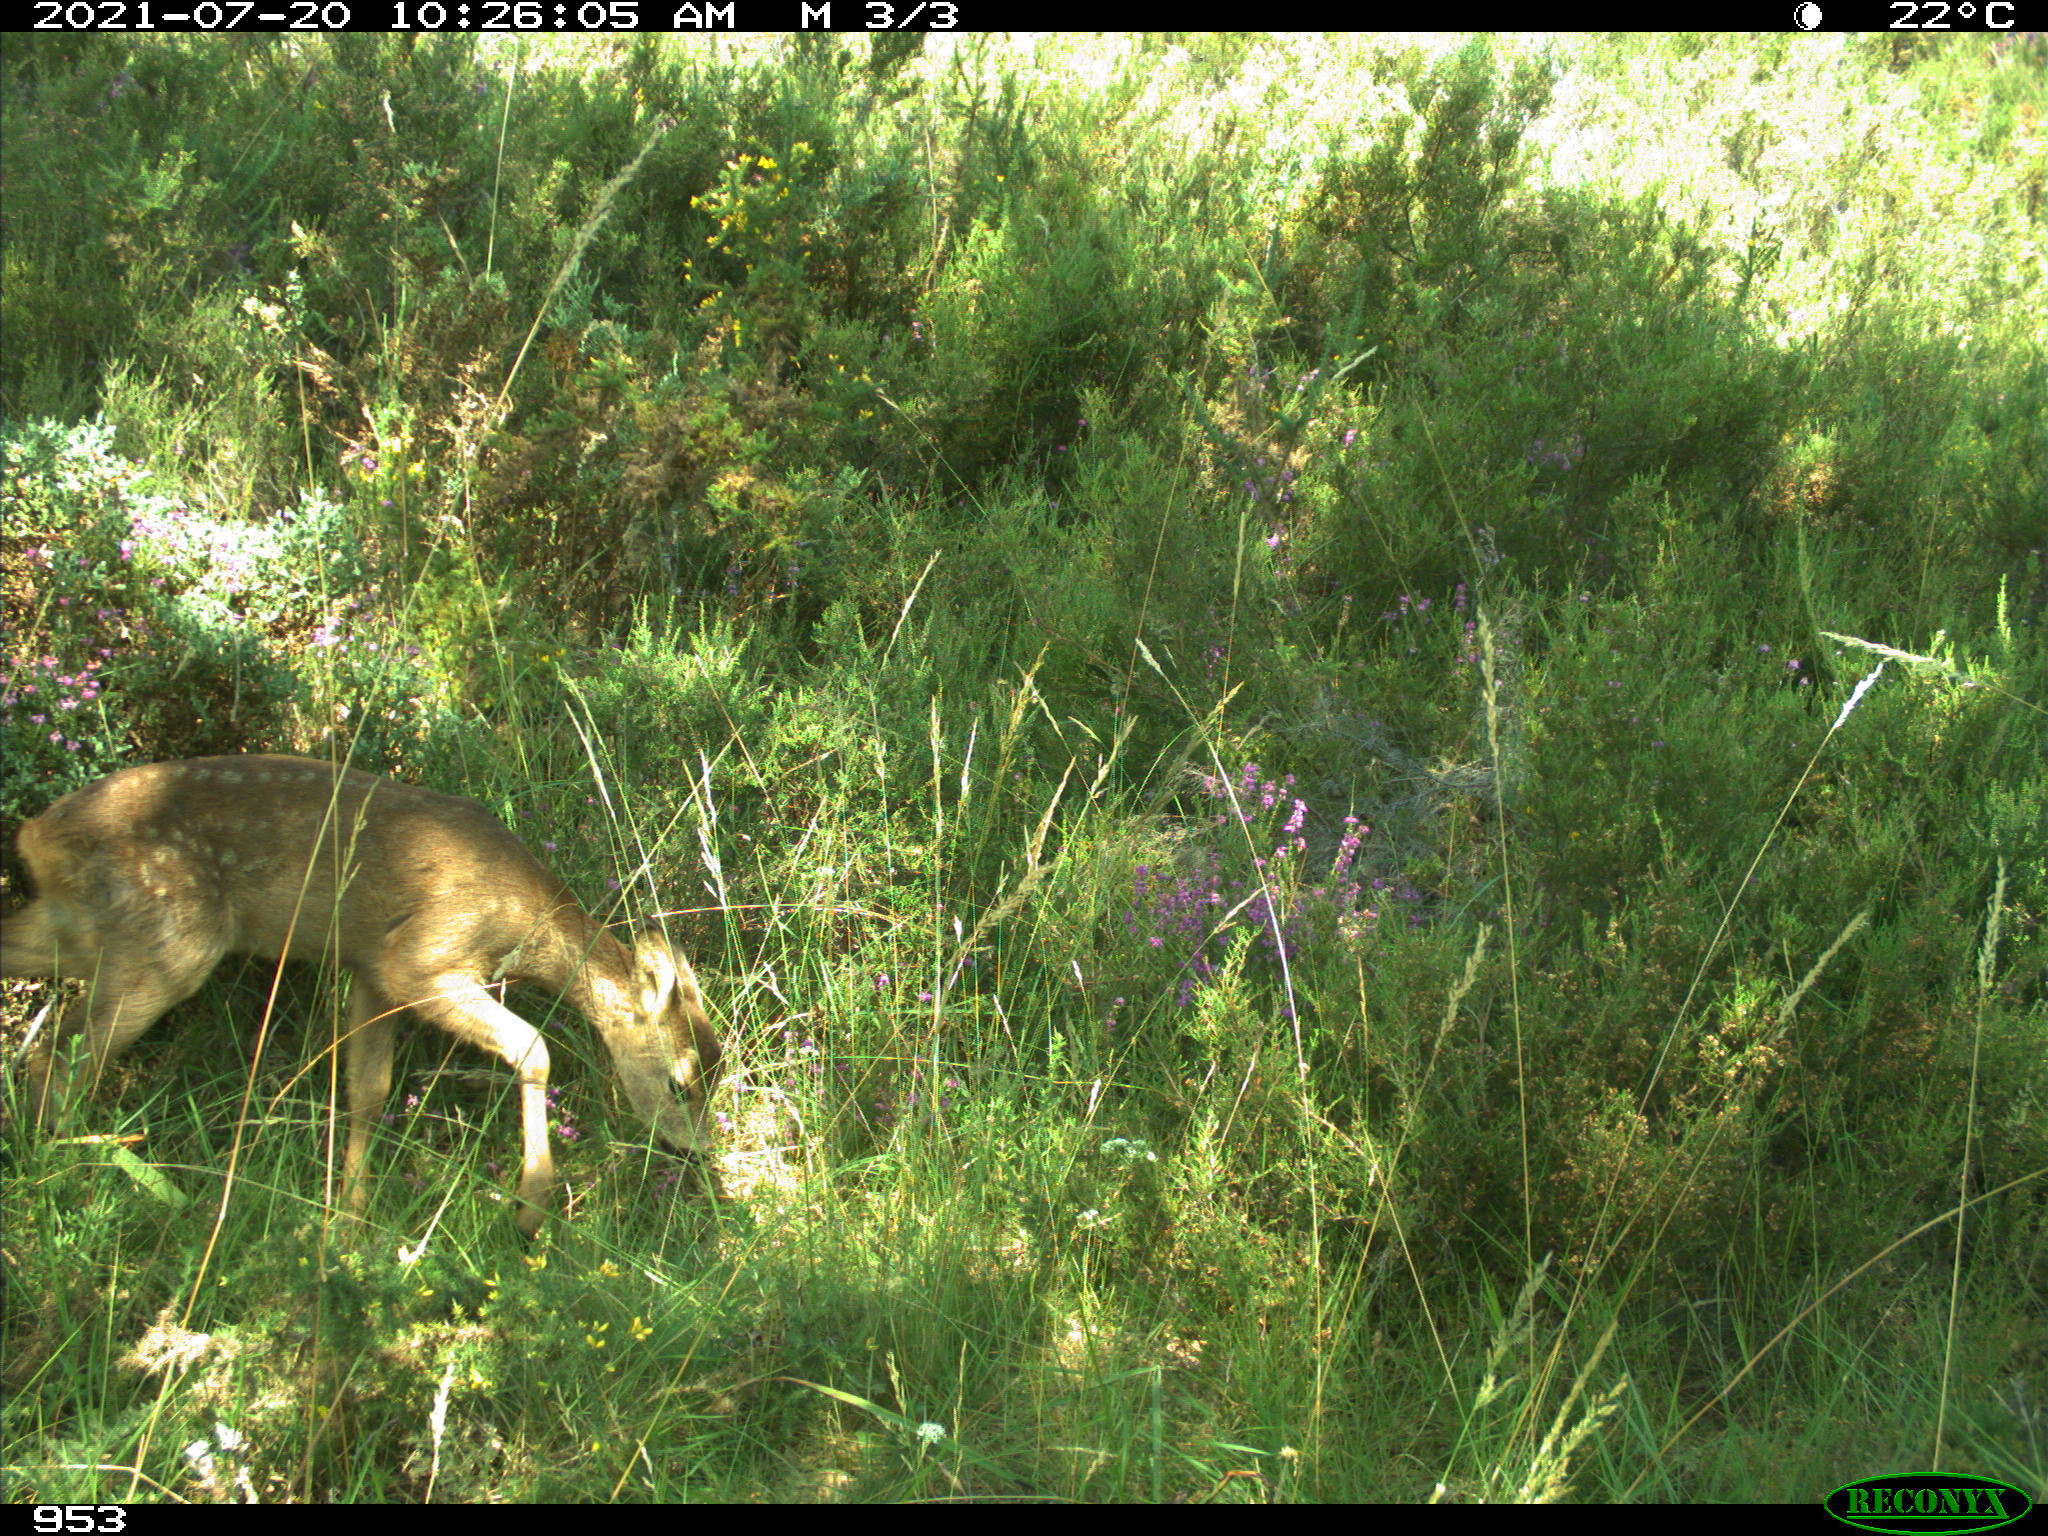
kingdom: Animalia
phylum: Chordata
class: Mammalia
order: Artiodactyla
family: Cervidae
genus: Capreolus
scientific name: Capreolus capreolus
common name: Western roe deer
